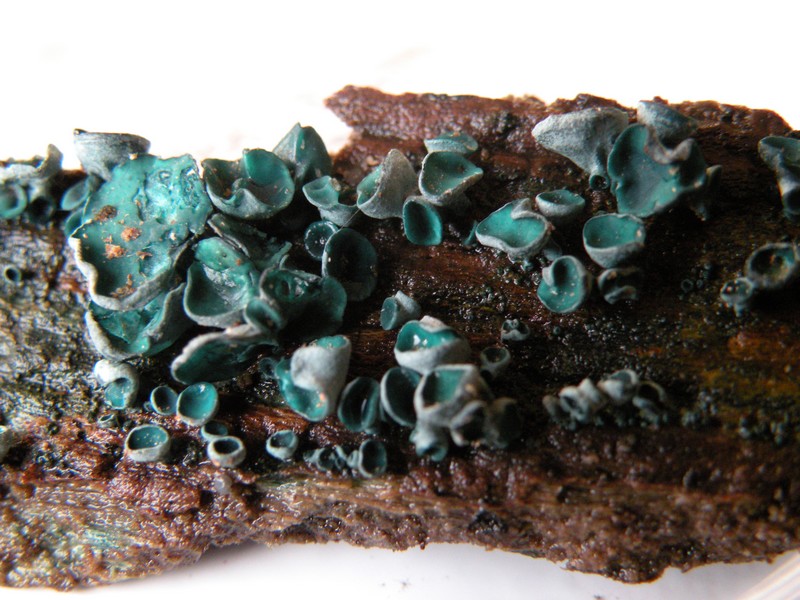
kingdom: Fungi
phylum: Ascomycota
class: Leotiomycetes
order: Helotiales
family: Chlorociboriaceae
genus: Chlorociboria
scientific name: Chlorociboria aeruginascens
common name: almindelig grønskive
